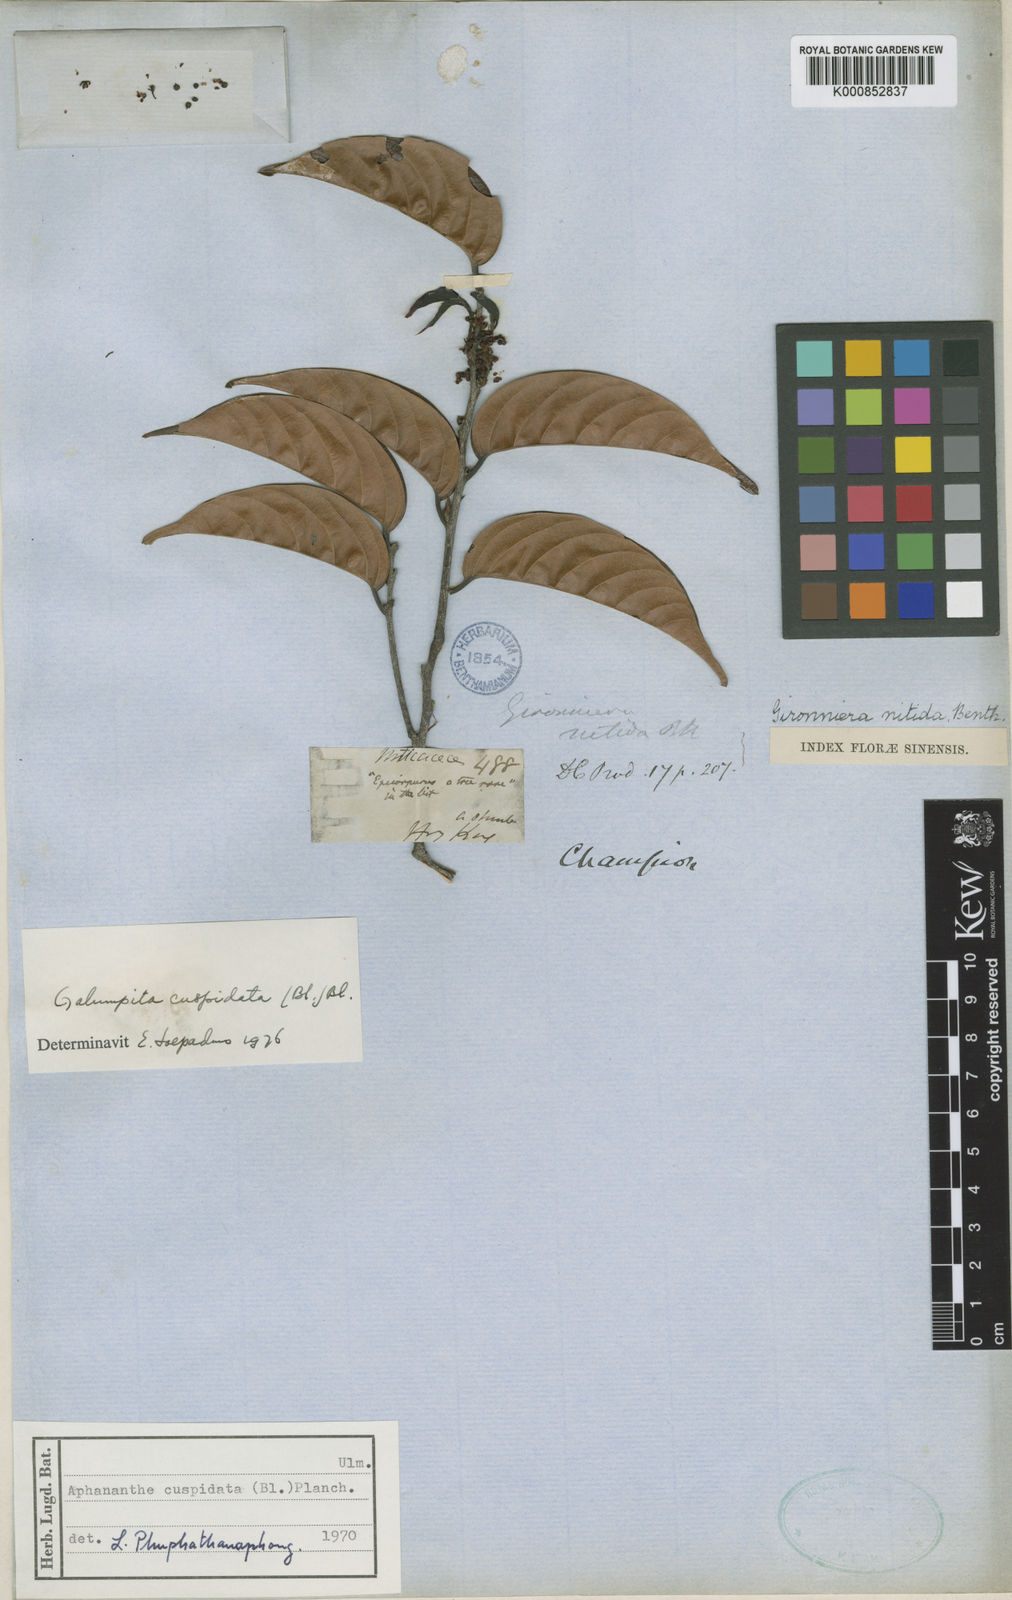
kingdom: Plantae
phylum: Tracheophyta
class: Magnoliopsida
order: Rosales
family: Cannabaceae
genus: Aphananthe
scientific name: Aphananthe cuspidata
